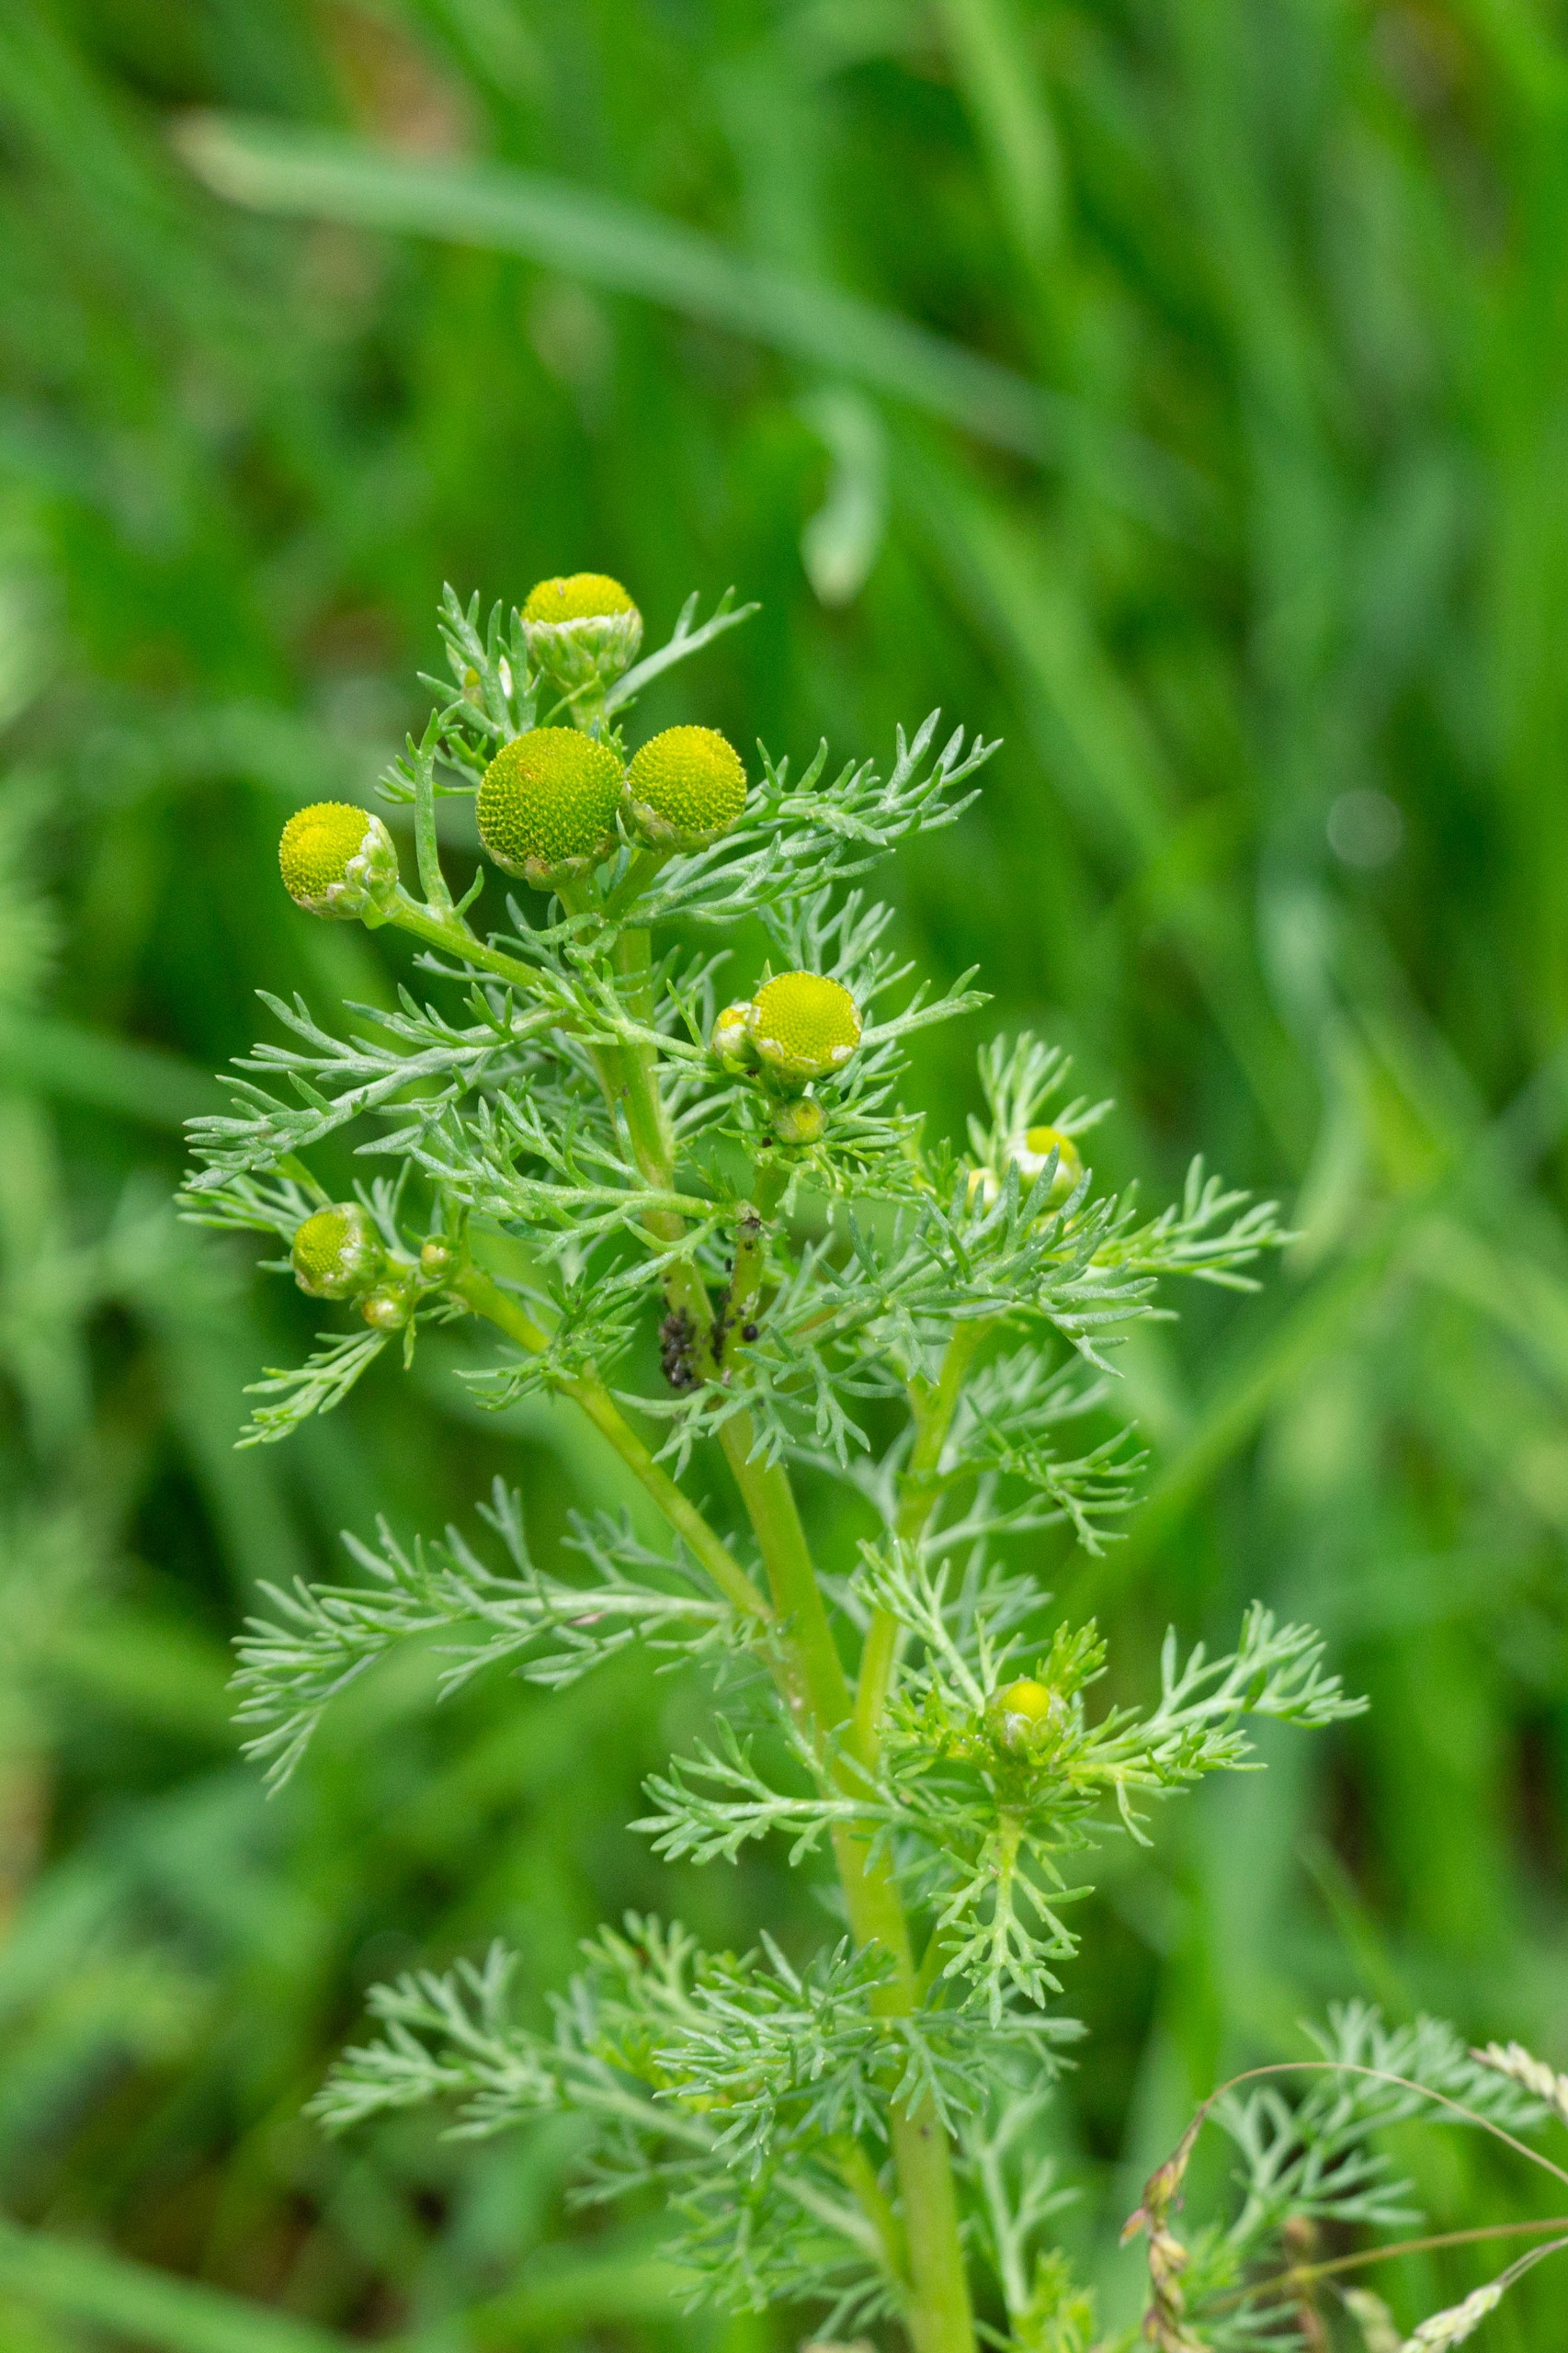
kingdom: Plantae
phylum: Tracheophyta
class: Magnoliopsida
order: Asterales
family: Asteraceae
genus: Matricaria
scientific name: Matricaria discoidea
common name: Skive-kamille
